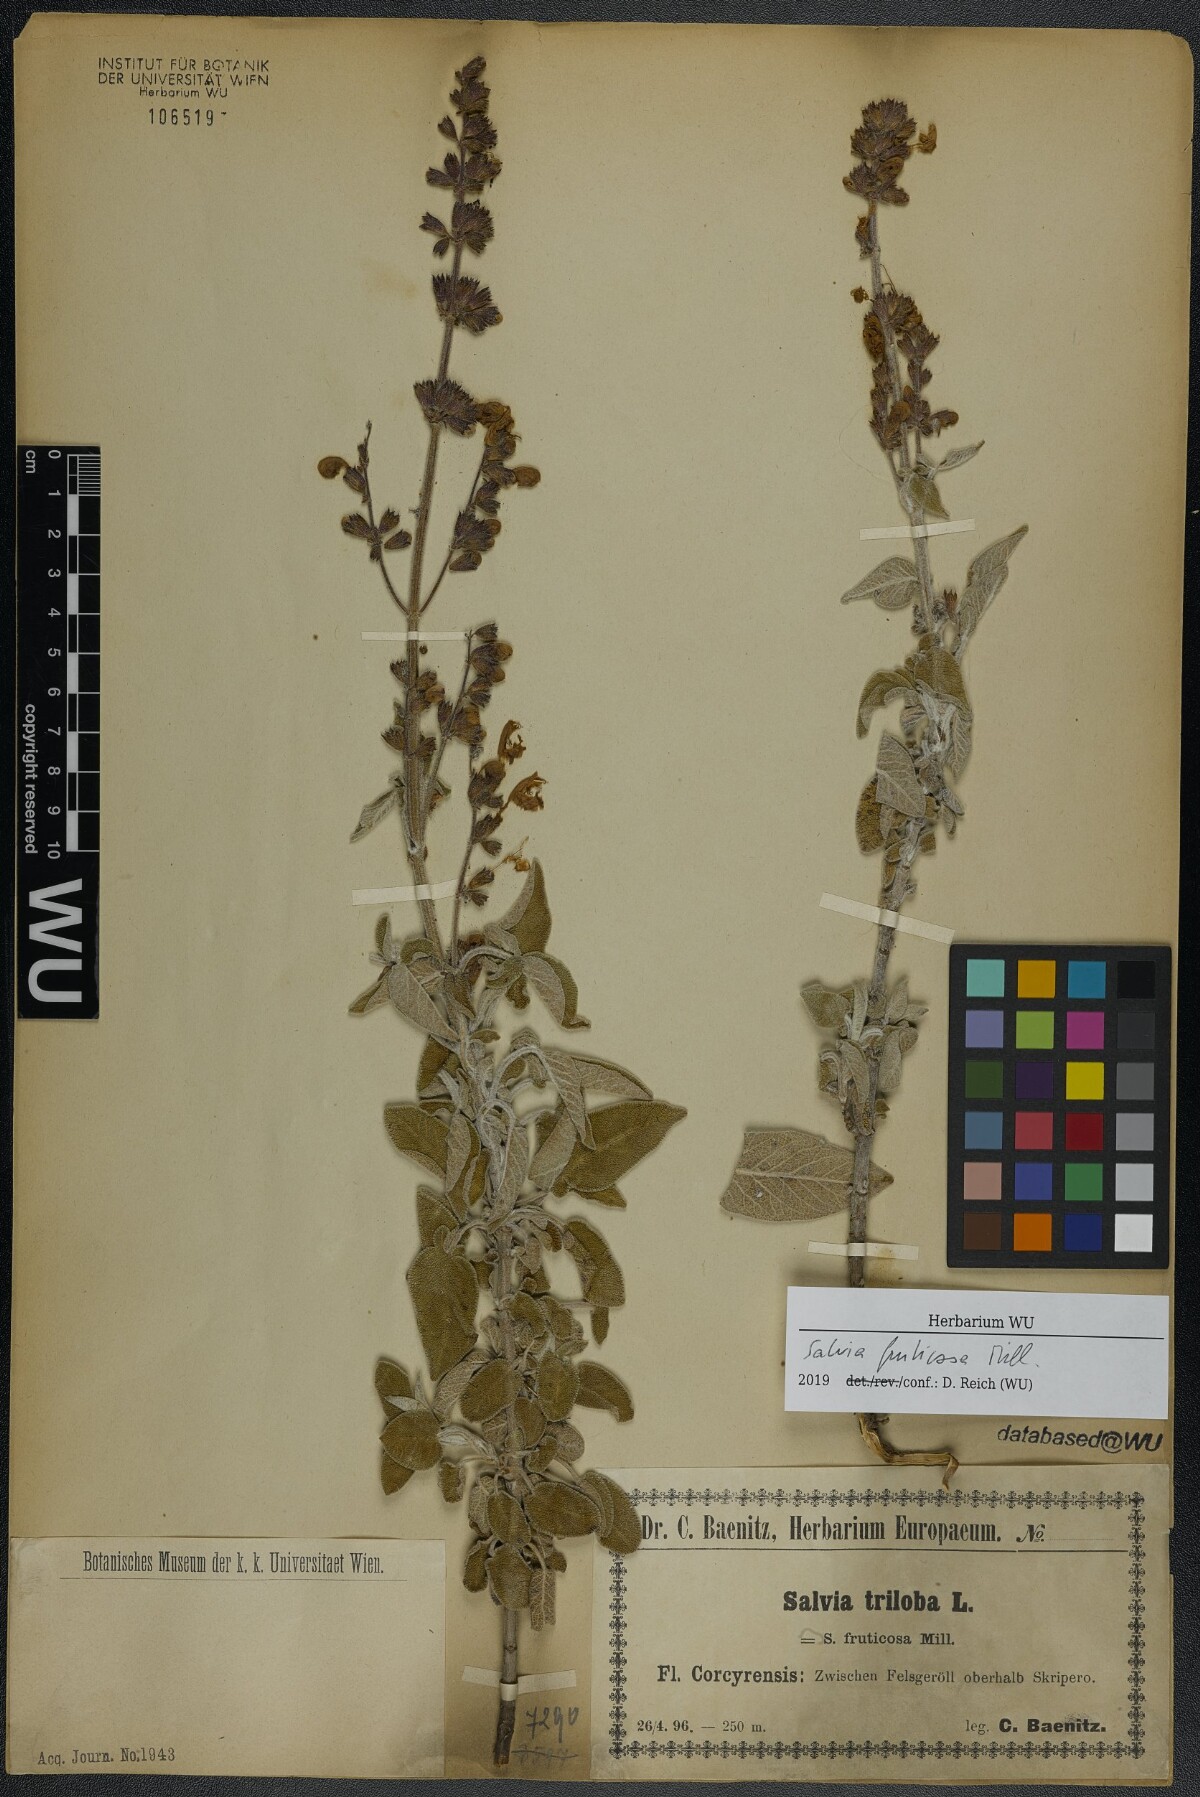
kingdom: Plantae
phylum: Tracheophyta
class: Magnoliopsida
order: Lamiales
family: Lamiaceae
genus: Salvia
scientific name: Salvia fruticosa
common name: Greek sage
